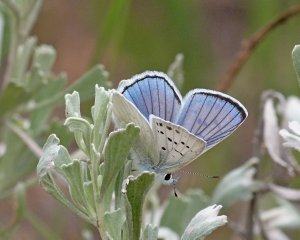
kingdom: Animalia
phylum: Arthropoda
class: Insecta
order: Lepidoptera
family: Lycaenidae
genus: Lycaena
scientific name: Lycaena heteronea
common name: Blue Copper
